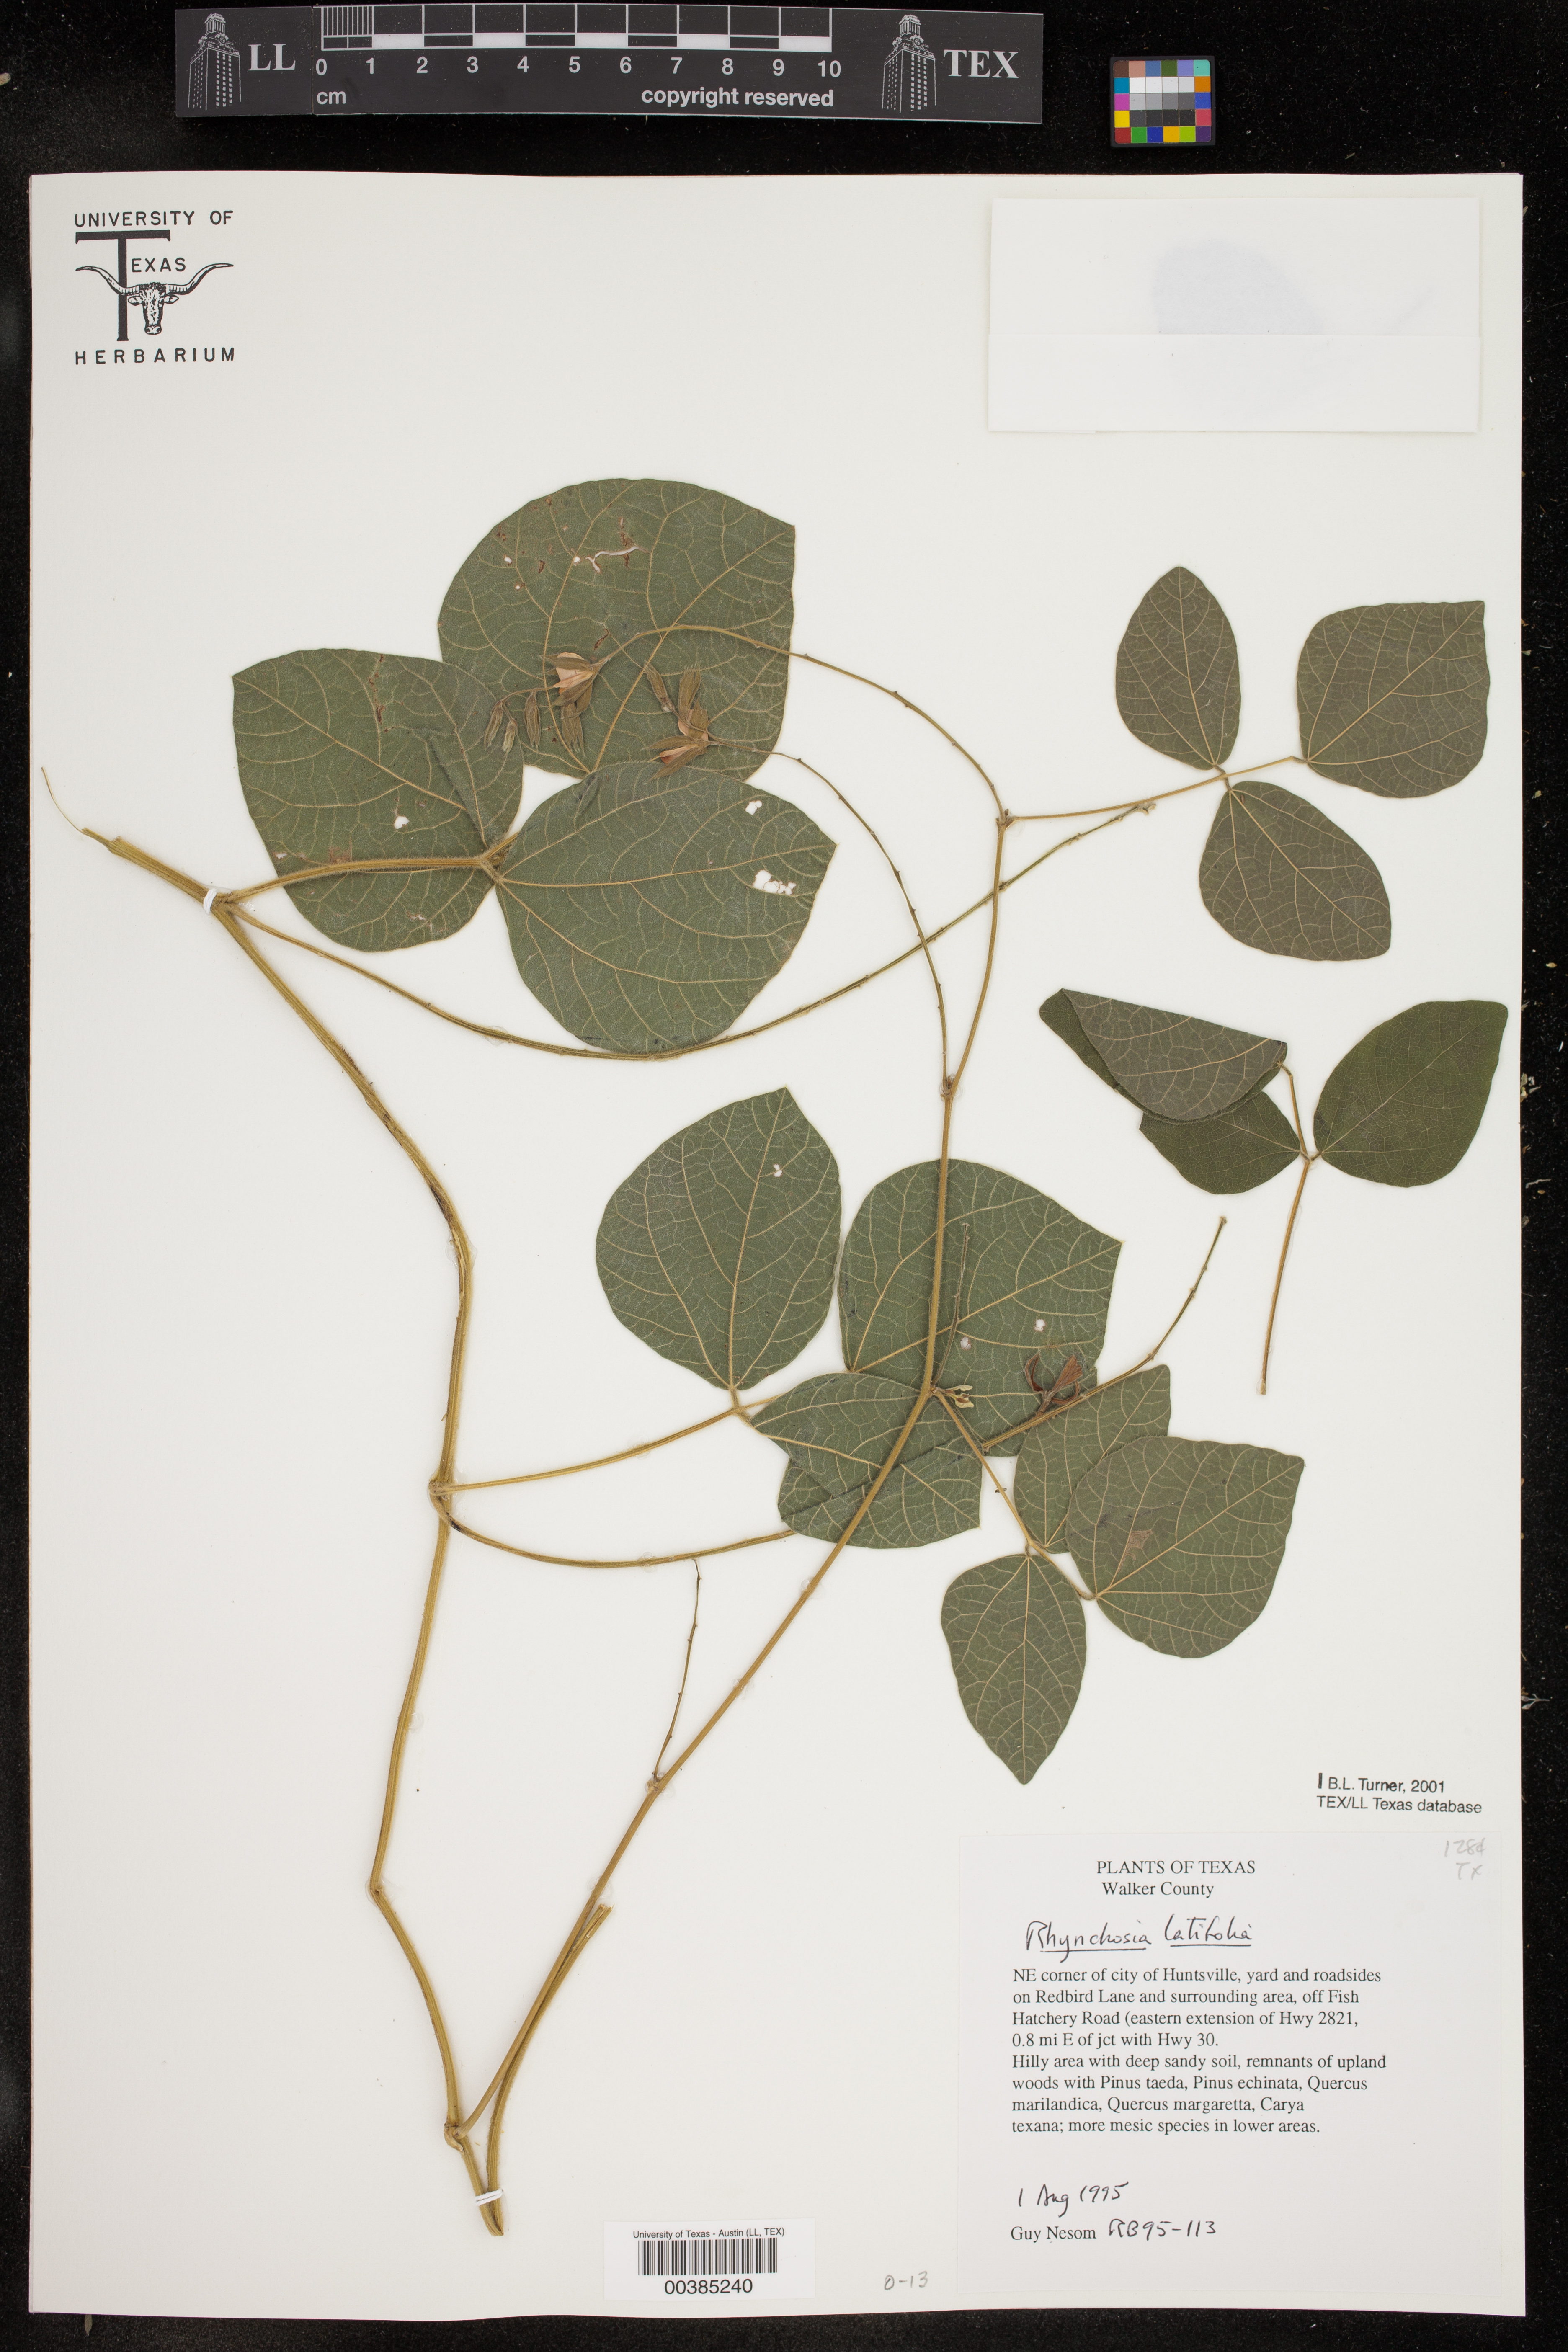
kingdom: Plantae
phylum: Tracheophyta
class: Magnoliopsida
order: Fabales
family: Fabaceae
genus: Rhynchosia
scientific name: Rhynchosia latifolia
